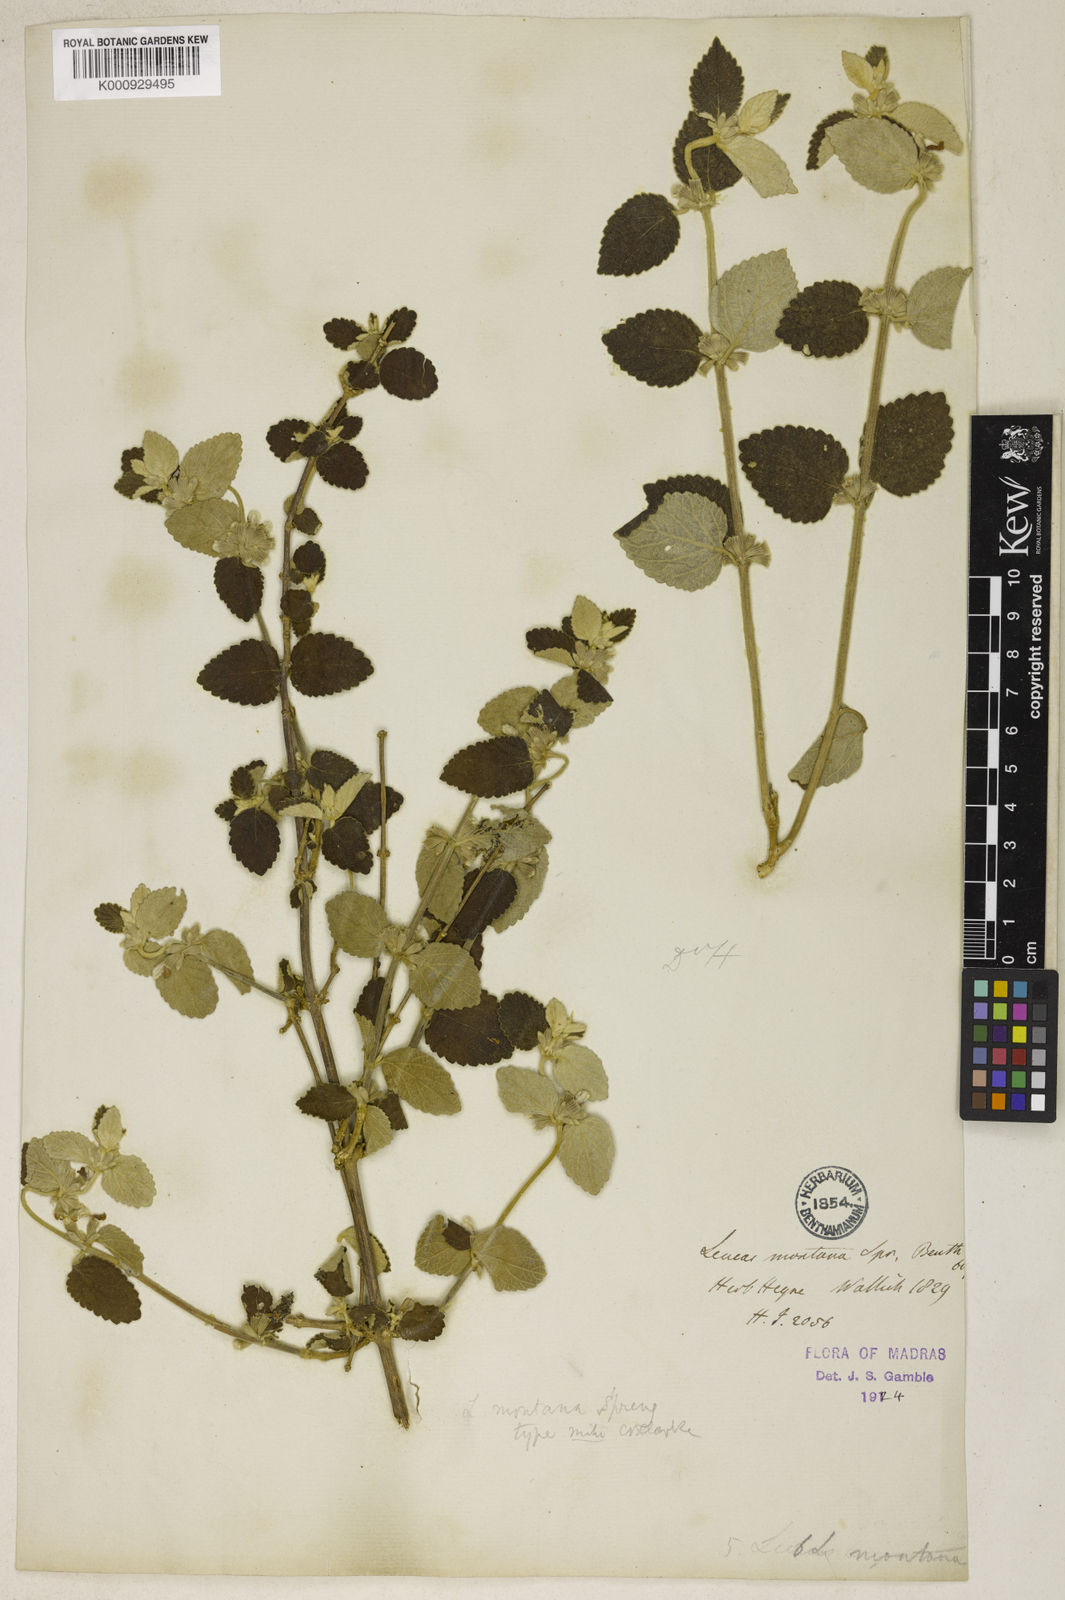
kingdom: Plantae
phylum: Tracheophyta
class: Magnoliopsida
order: Lamiales
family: Lamiaceae
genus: Leucas
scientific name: Leucas montana
